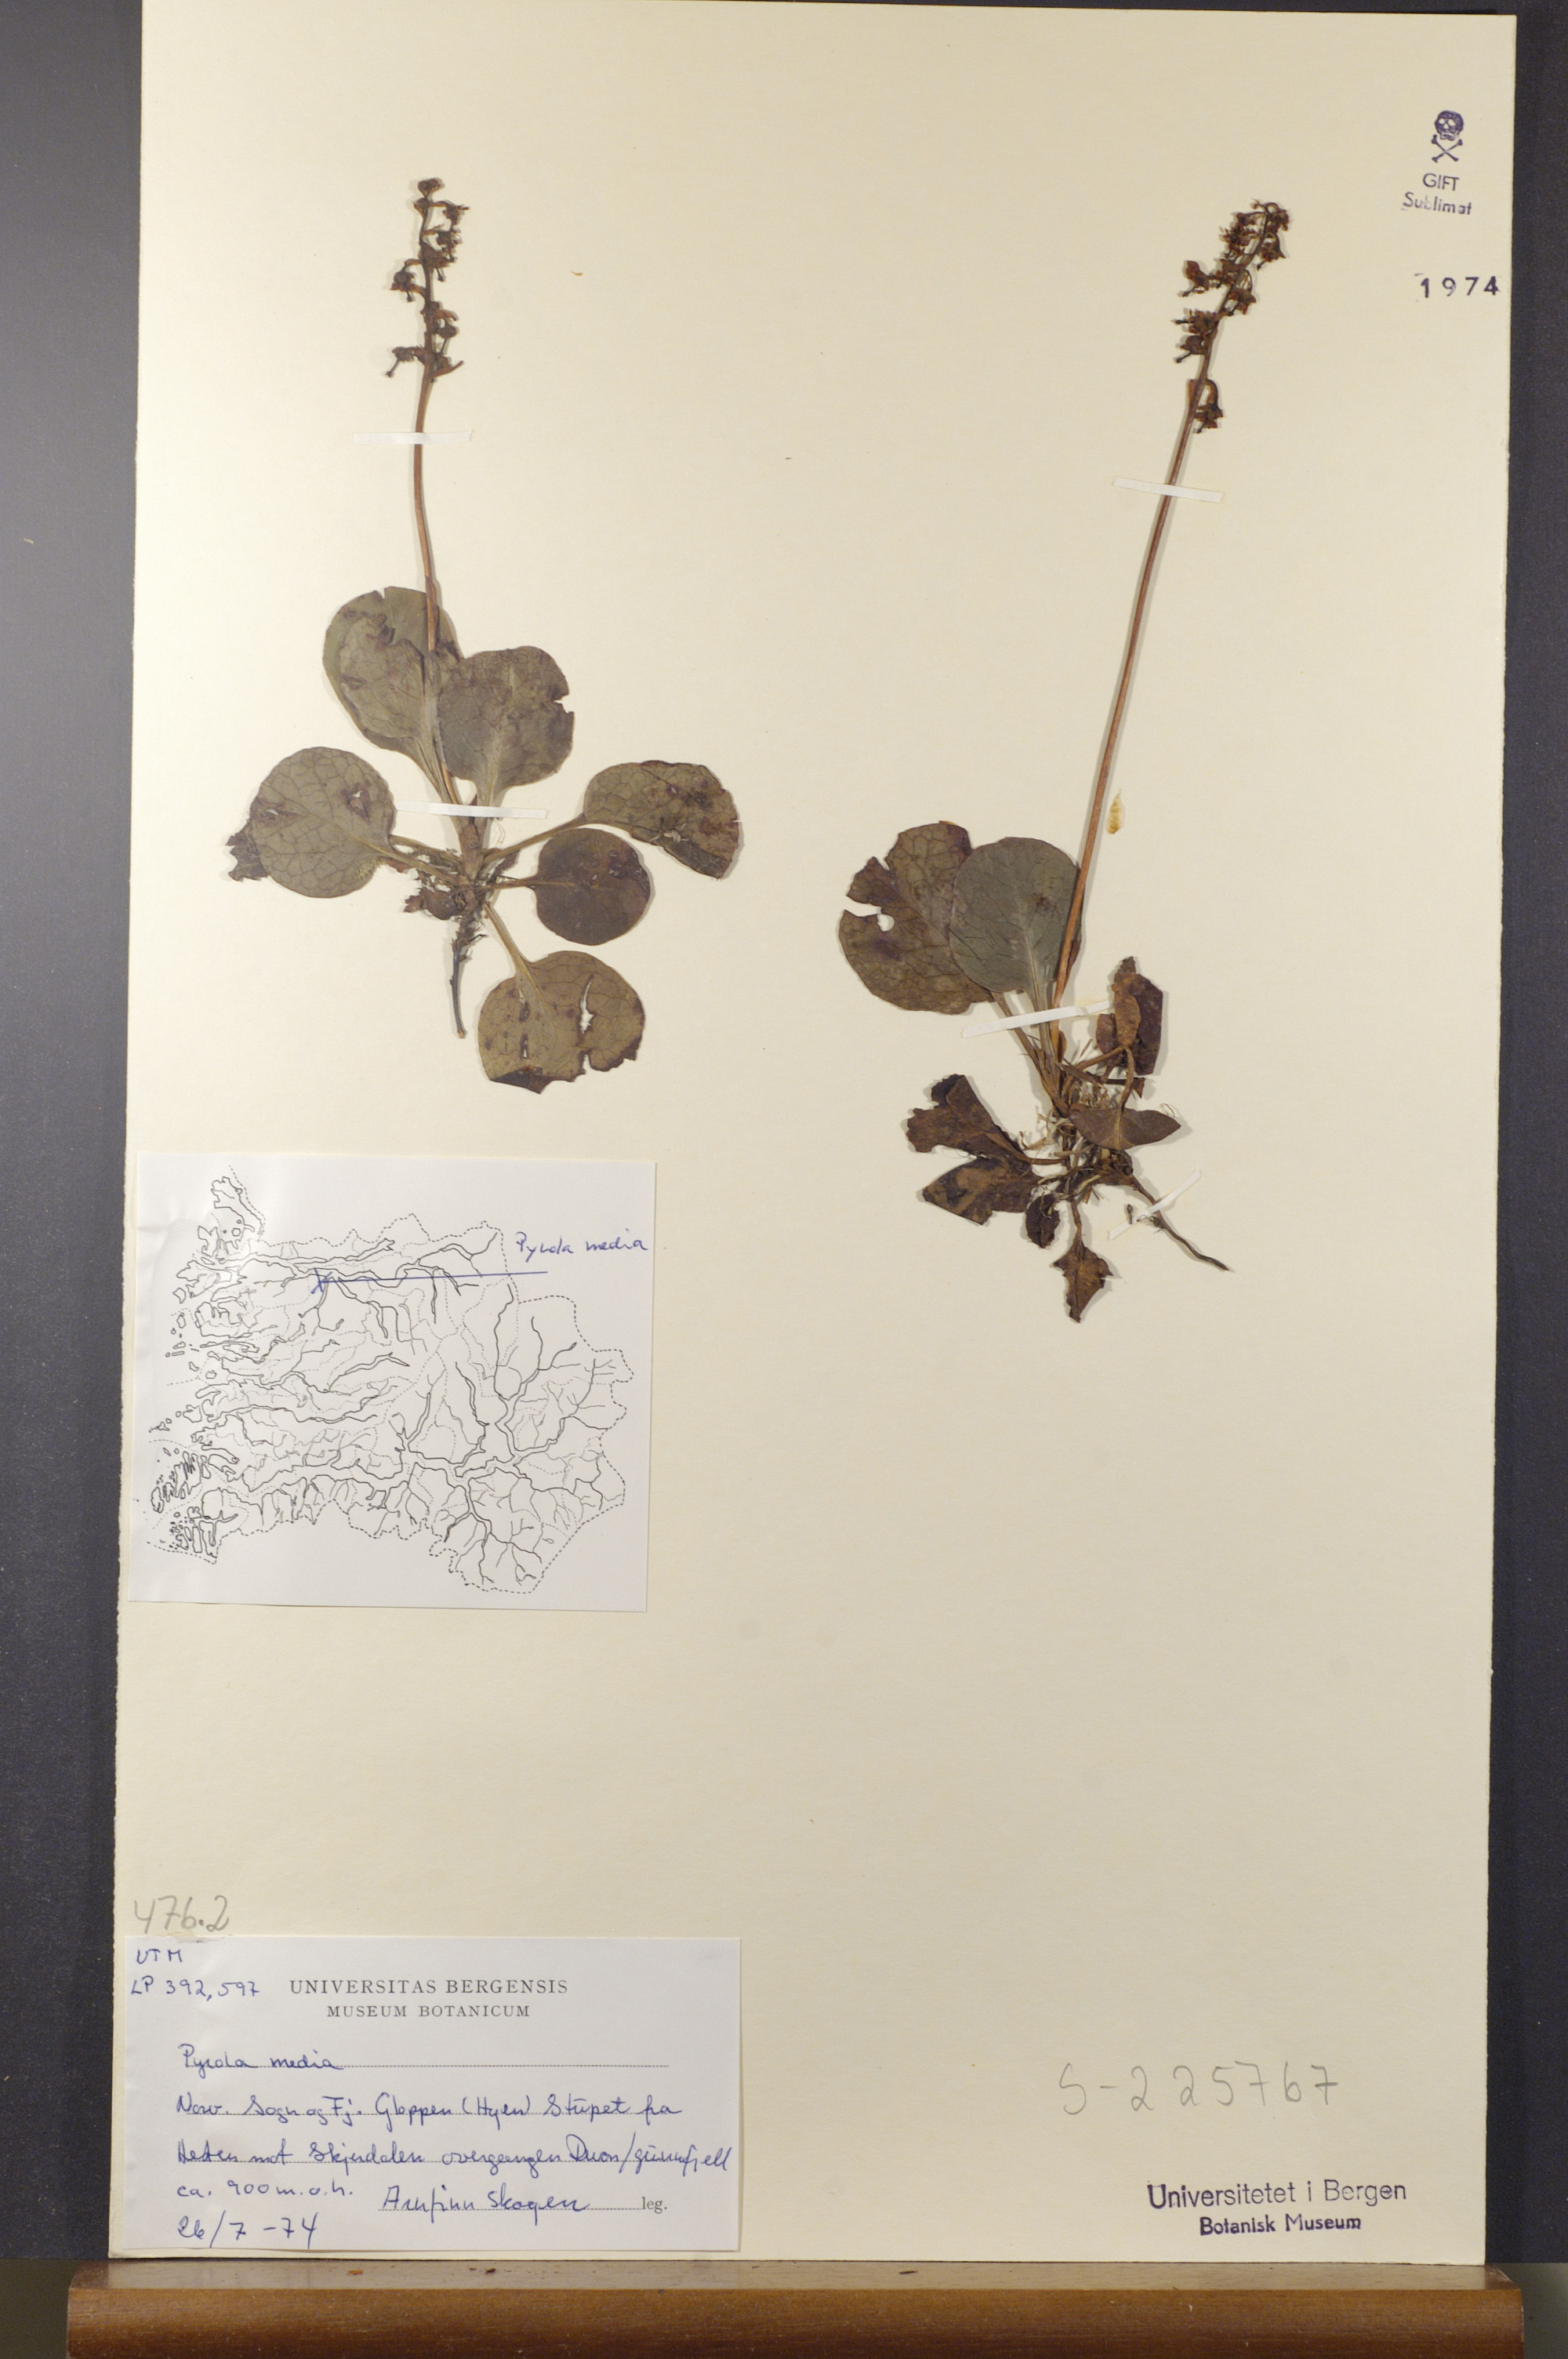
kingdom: Plantae
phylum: Tracheophyta
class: Magnoliopsida
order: Ericales
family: Ericaceae
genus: Pyrola
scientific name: Pyrola media
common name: Intermediate wintergreen
